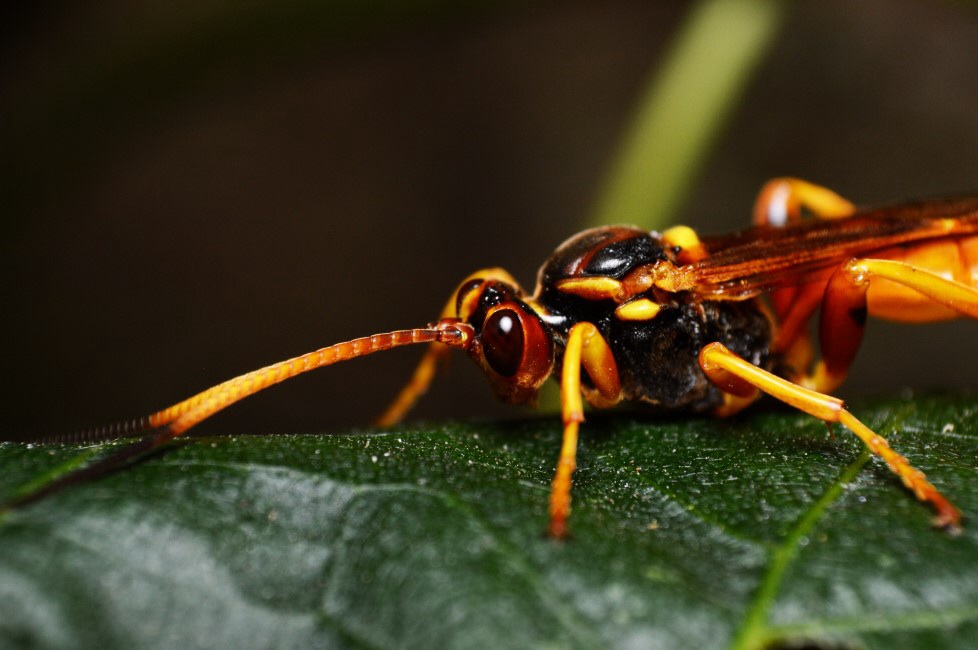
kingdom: Animalia
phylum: Arthropoda
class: Insecta
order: Hymenoptera
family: Ichneumonidae
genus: Callajoppa
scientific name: Callajoppa cirrogaster
